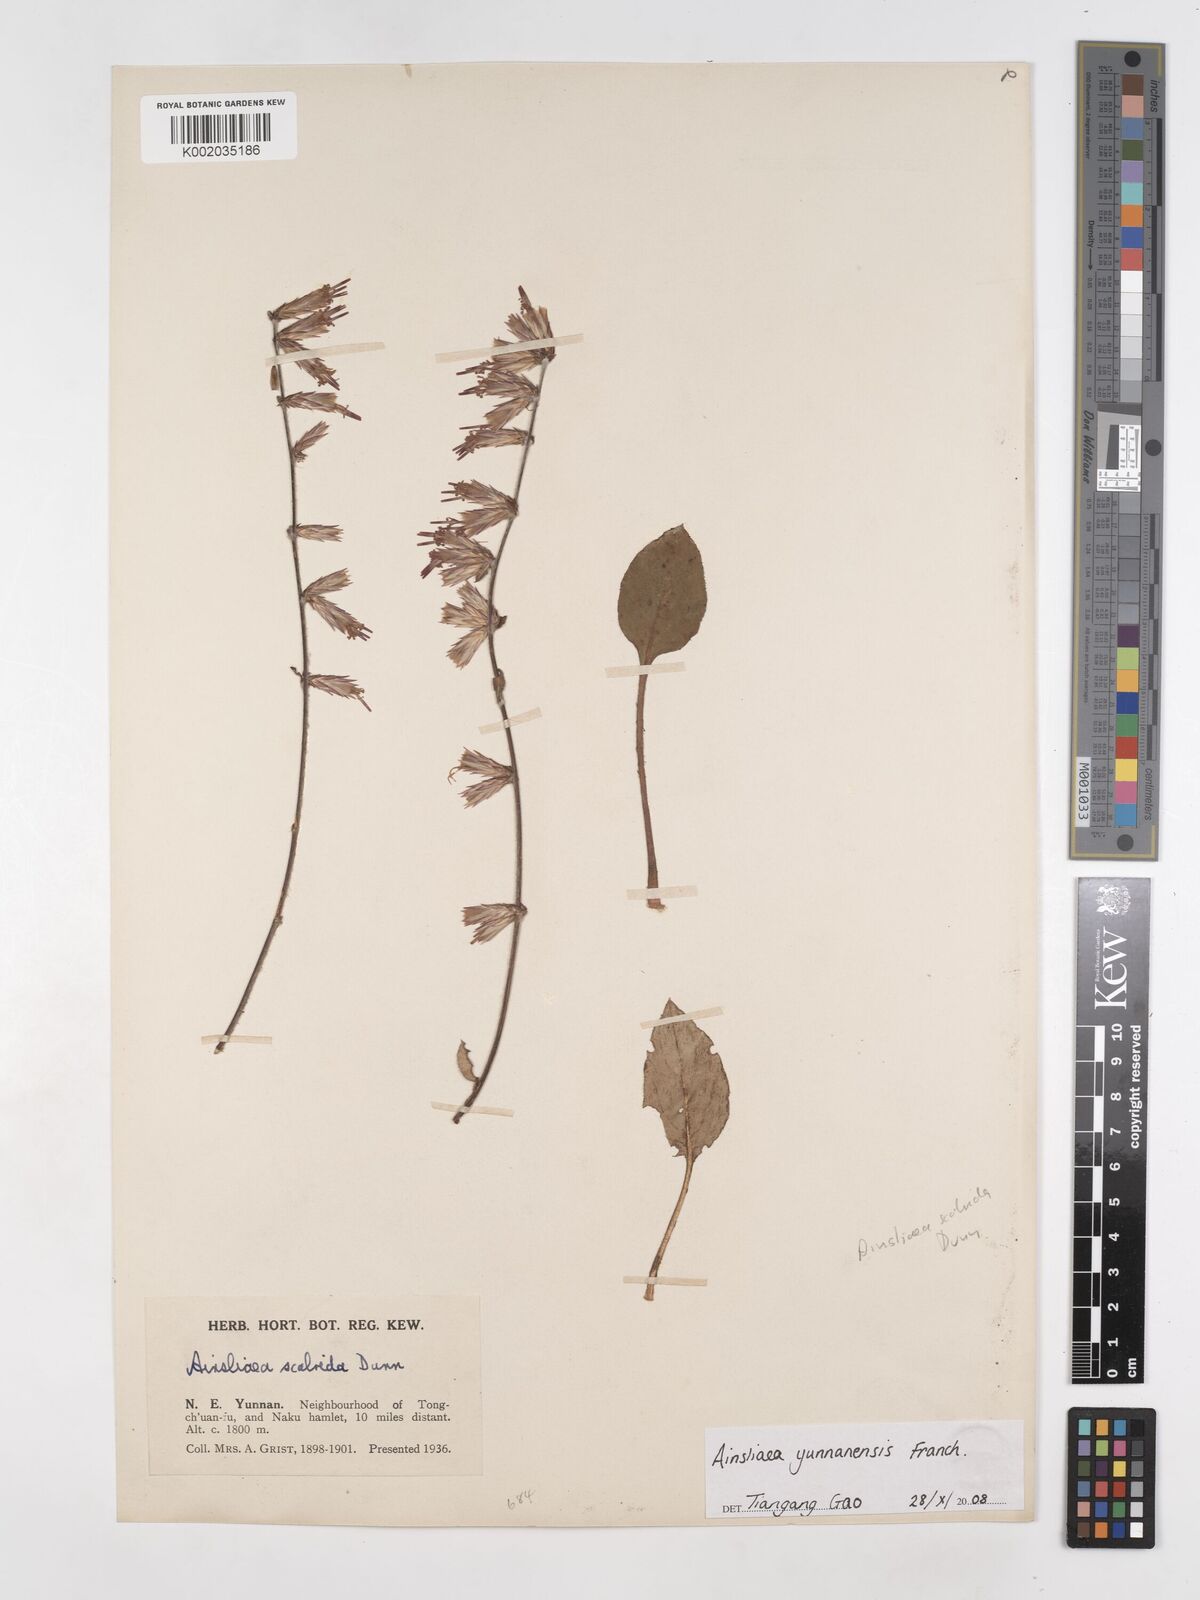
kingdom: Plantae
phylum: Tracheophyta
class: Magnoliopsida
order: Asterales
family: Asteraceae
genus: Ainsliaea
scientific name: Ainsliaea yunnanensis
